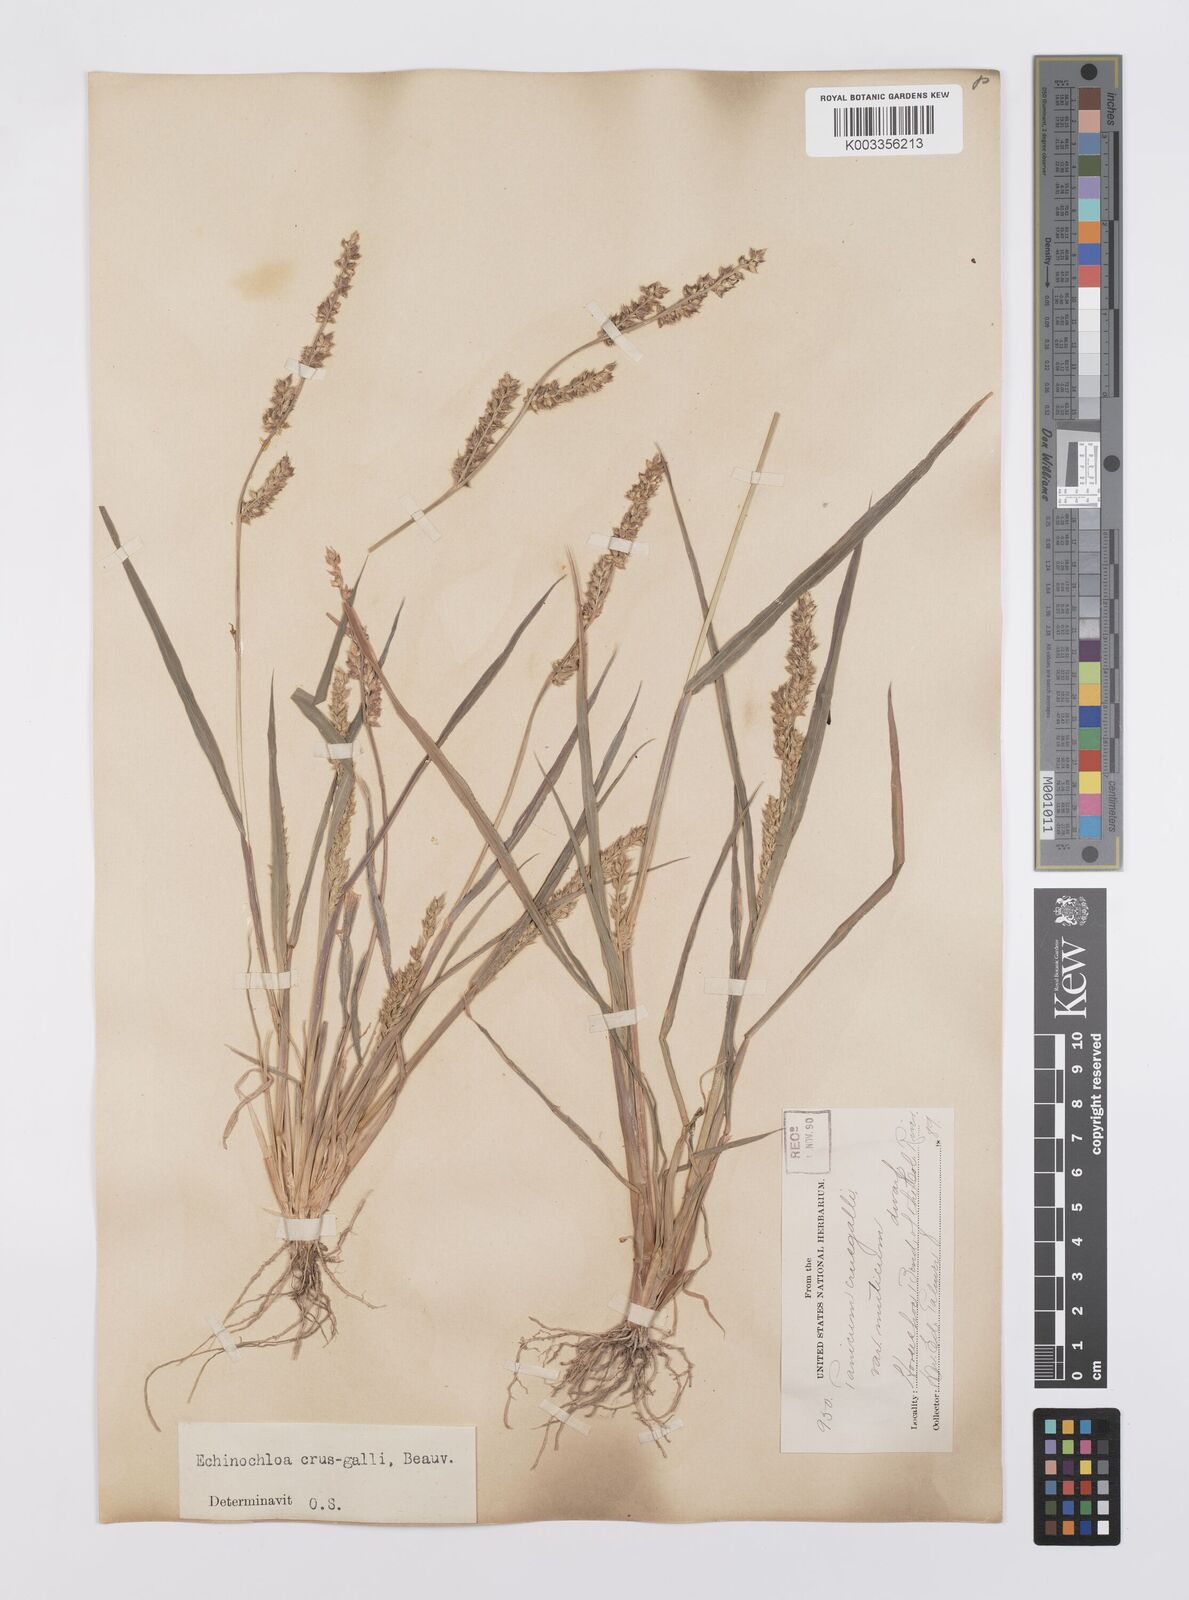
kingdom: Plantae
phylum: Tracheophyta
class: Liliopsida
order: Poales
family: Poaceae
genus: Echinochloa
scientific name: Echinochloa crus-galli
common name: Cockspur
